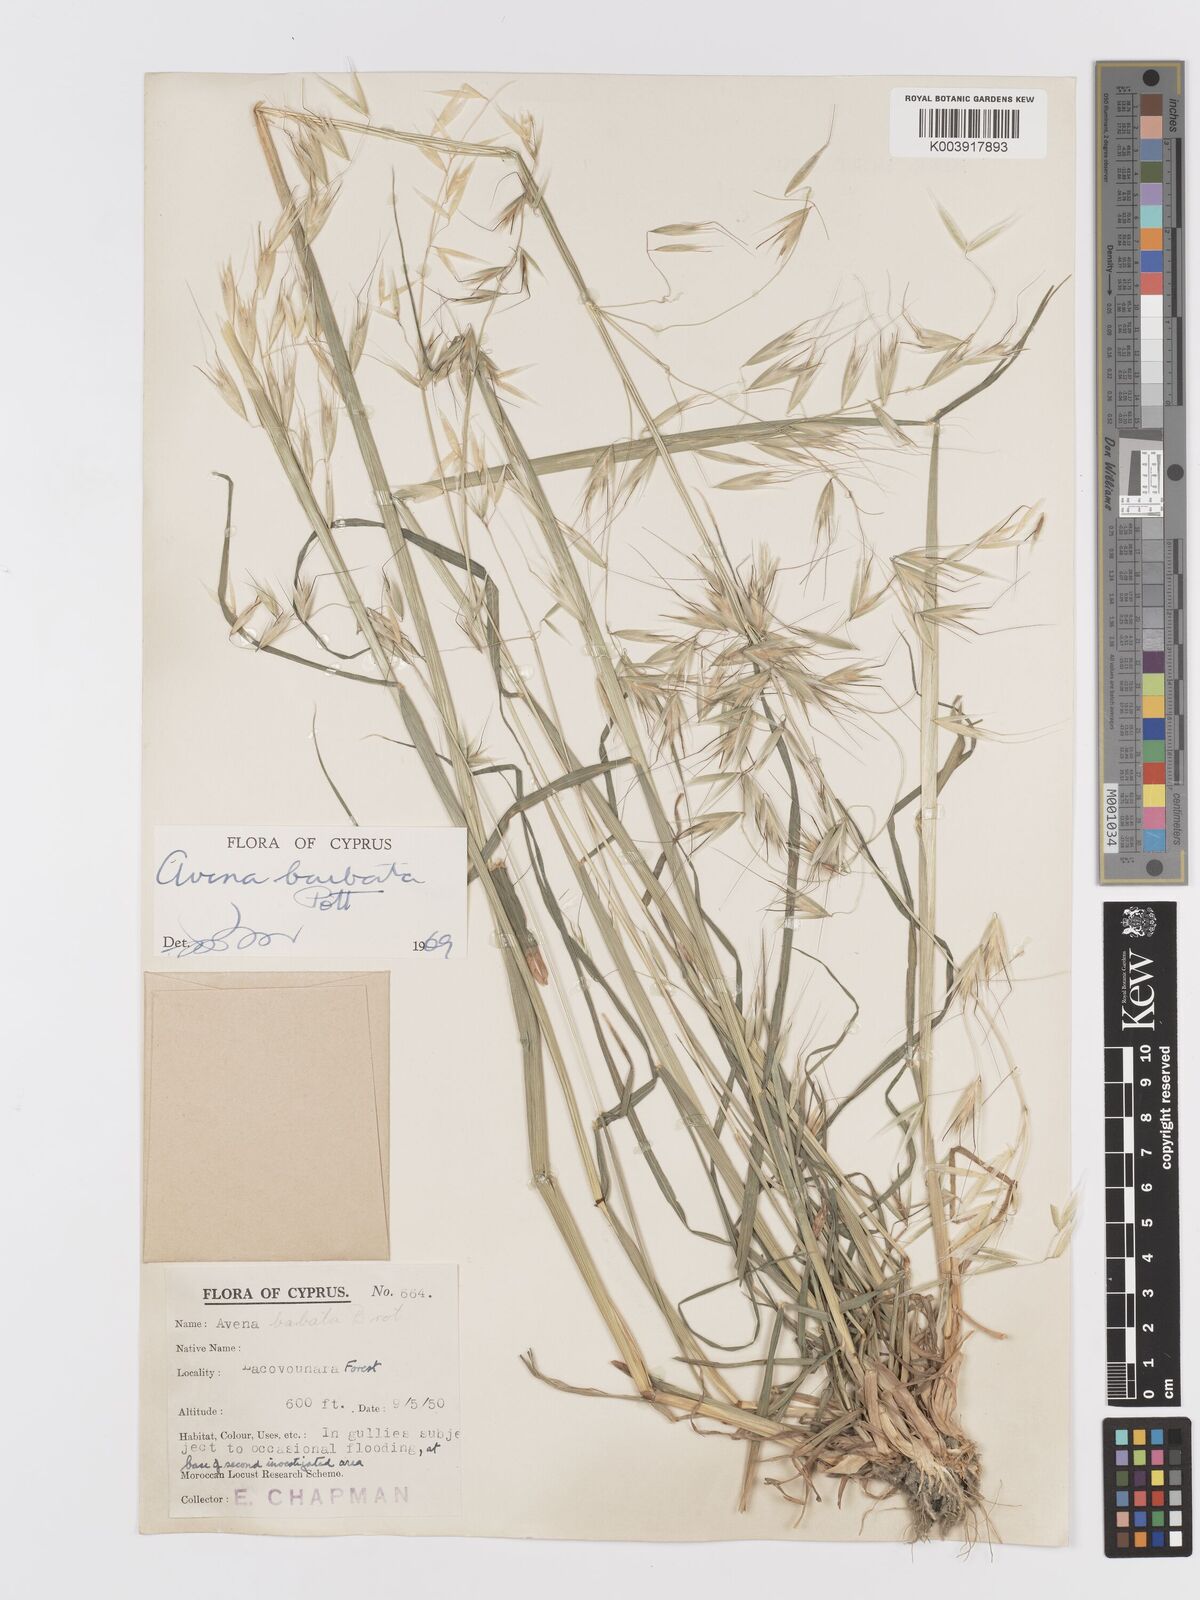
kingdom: Plantae
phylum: Tracheophyta
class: Liliopsida
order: Poales
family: Poaceae
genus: Avena
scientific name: Avena
